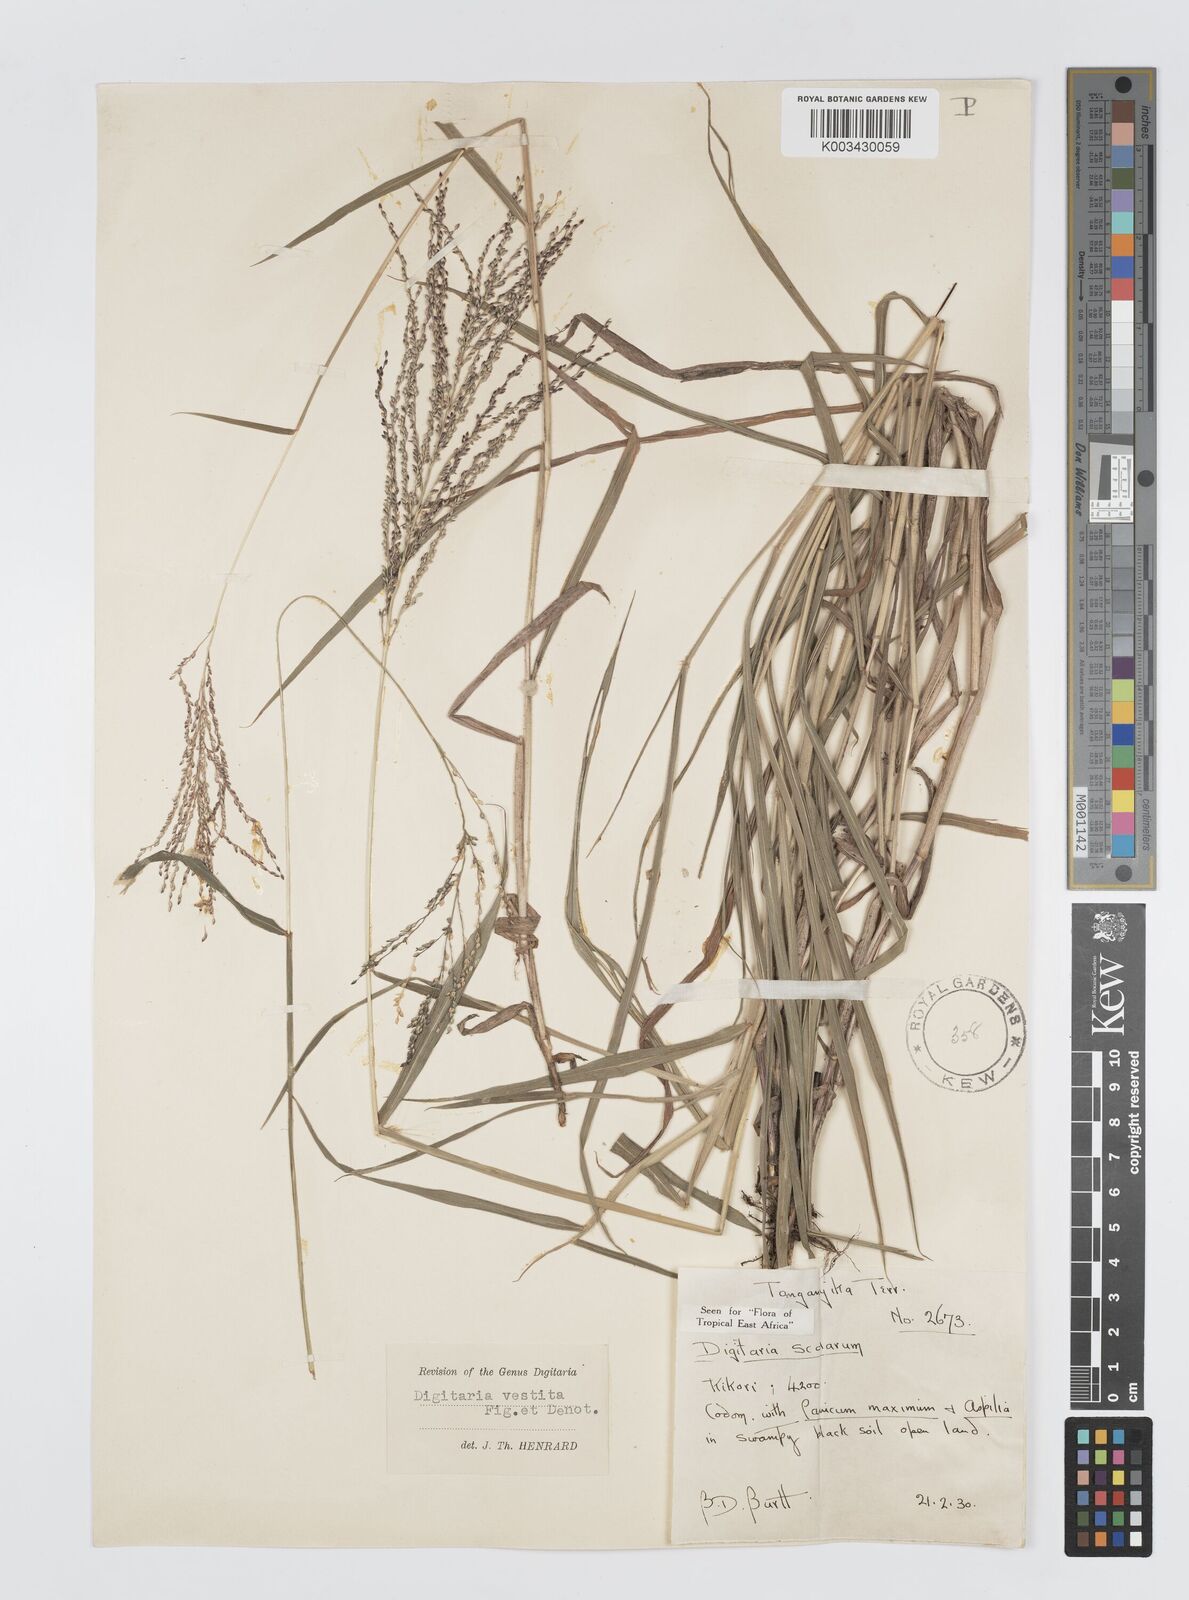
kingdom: Plantae
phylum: Tracheophyta
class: Liliopsida
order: Poales
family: Poaceae
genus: Digitaria
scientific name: Digitaria abyssinica
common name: African couchgrass
